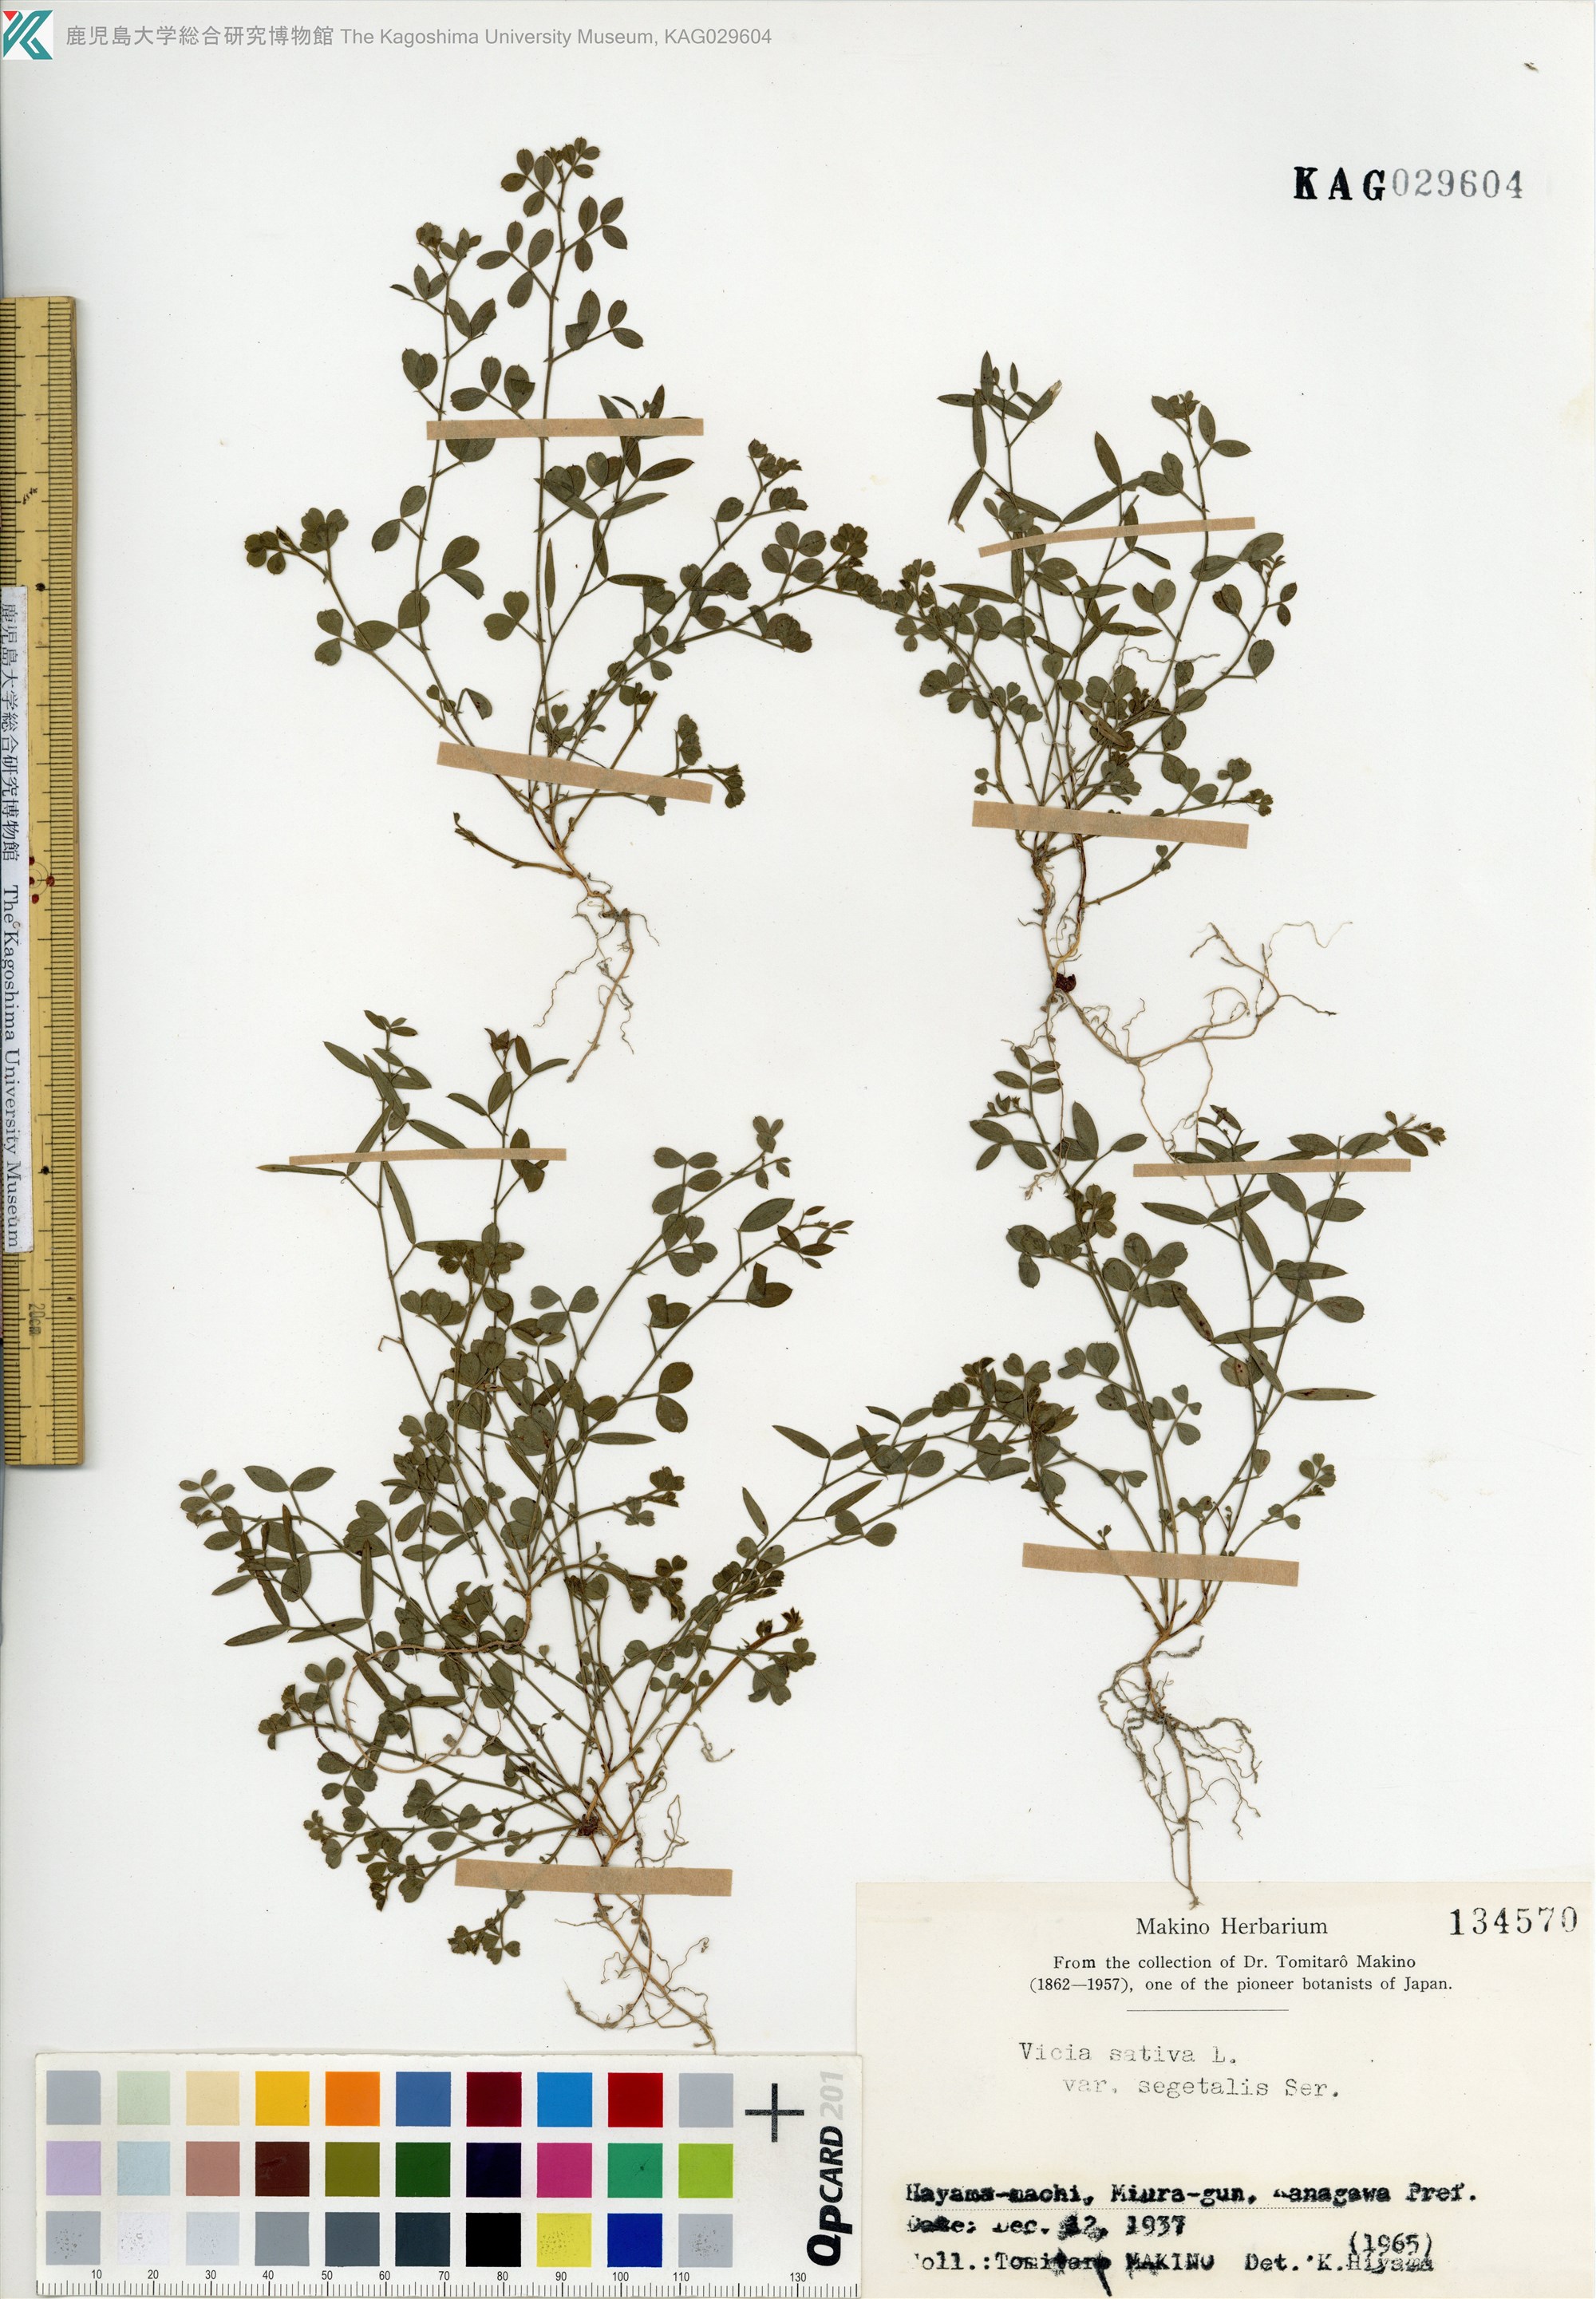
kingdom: Plantae
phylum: Tracheophyta
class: Magnoliopsida
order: Fabales
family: Fabaceae
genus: Vicia
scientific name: Vicia sativa
